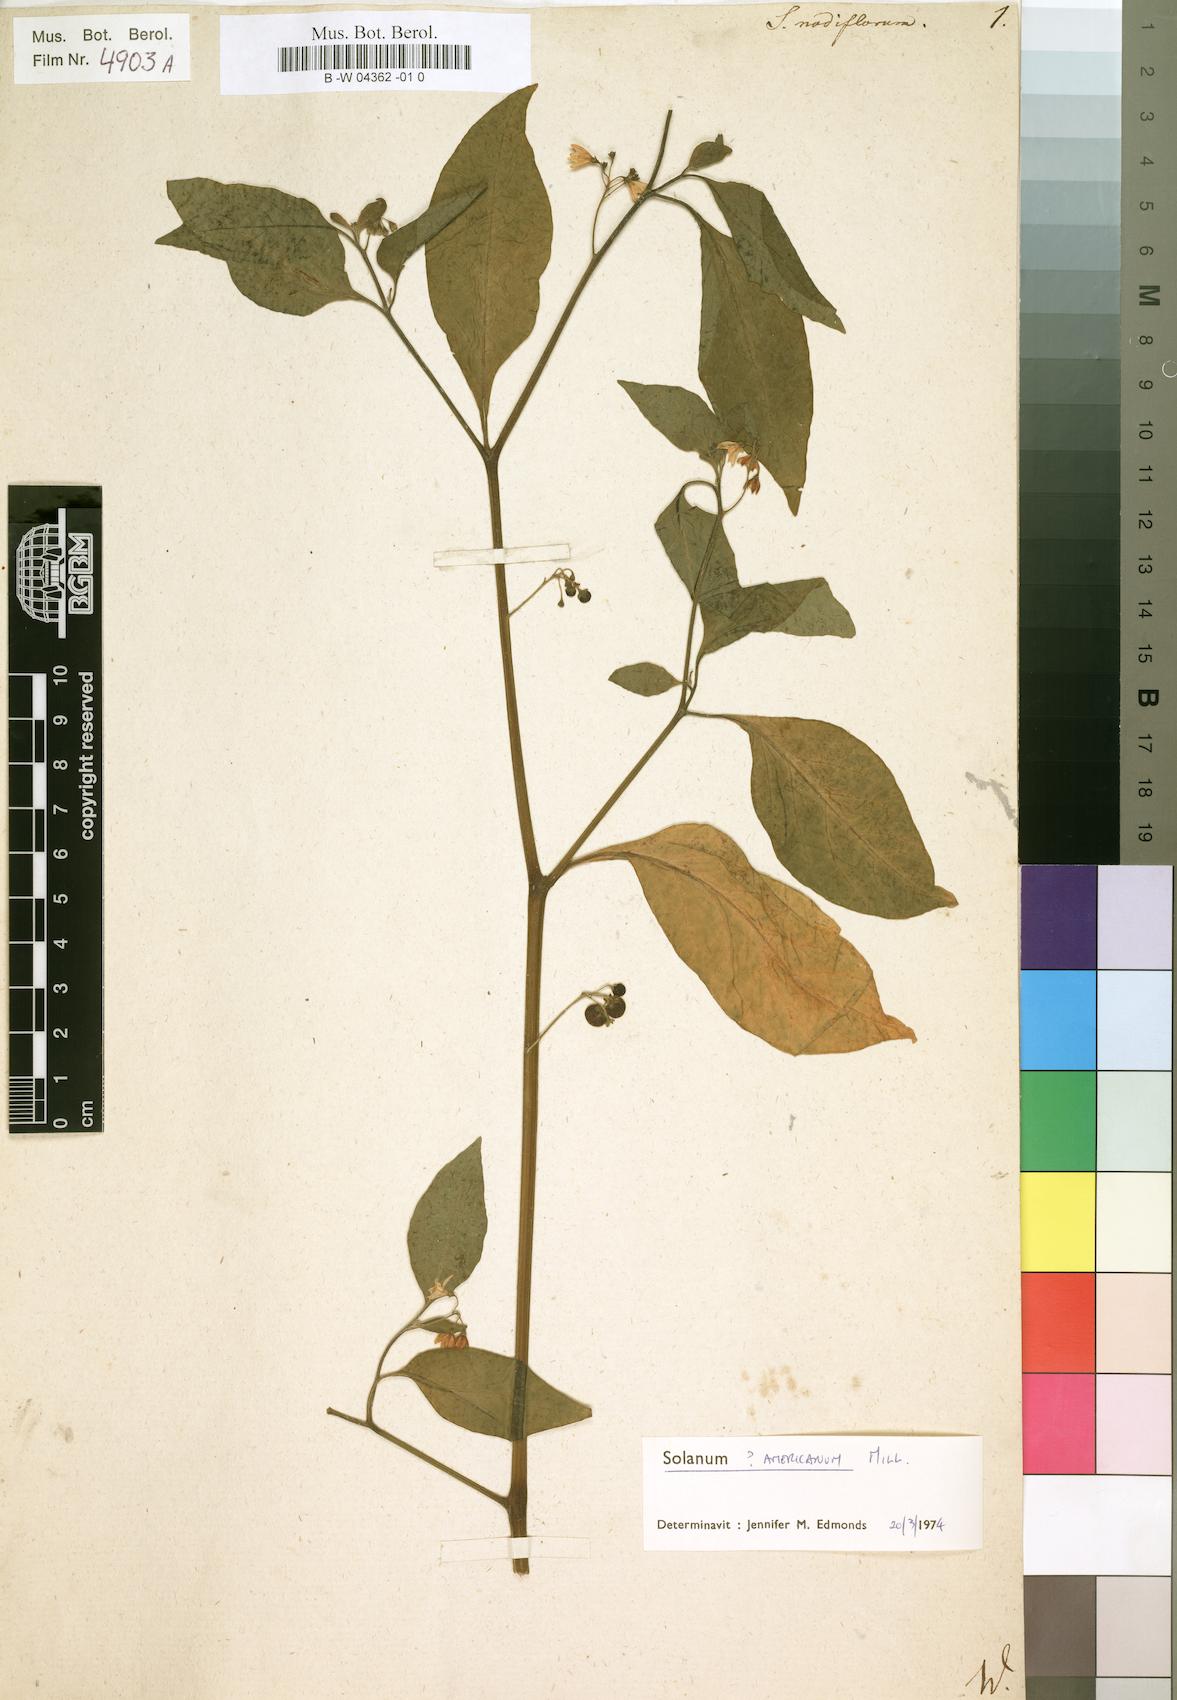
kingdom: Plantae
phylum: Tracheophyta
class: Magnoliopsida
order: Solanales
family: Solanaceae
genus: Solanum
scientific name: Solanum americanum
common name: American black nightshade
